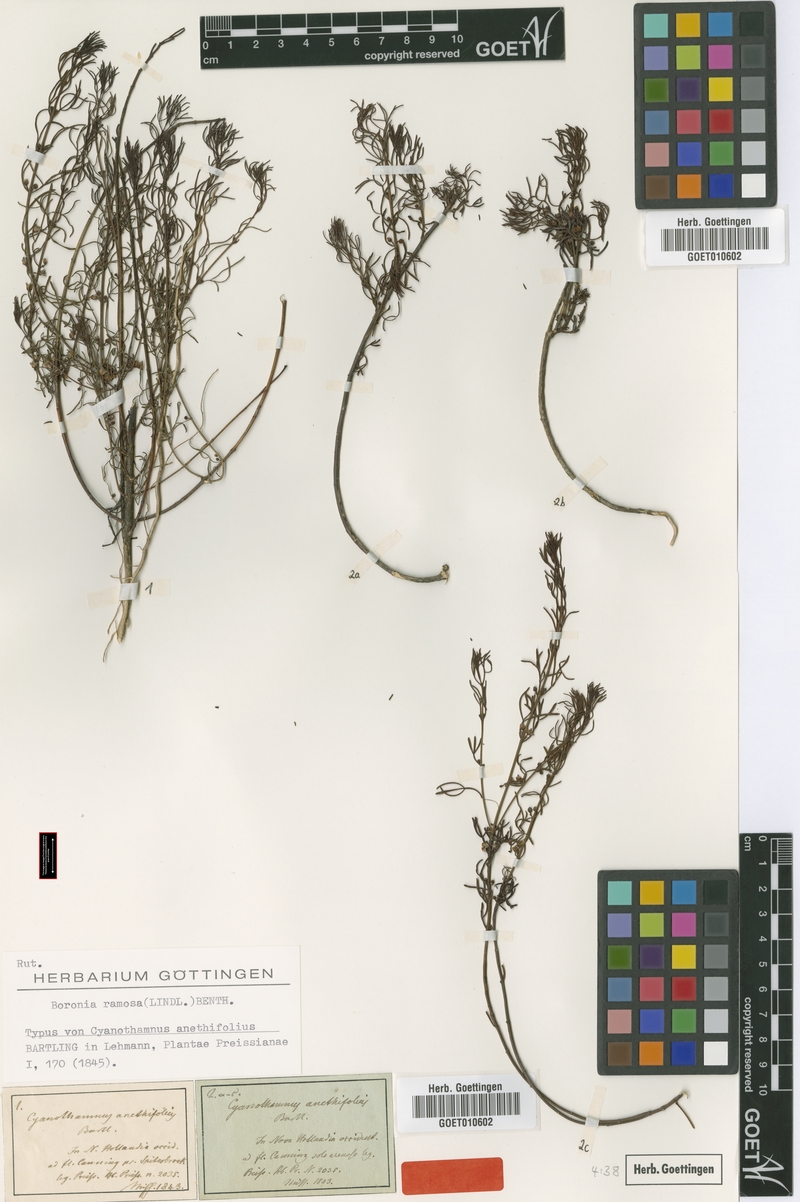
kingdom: Plantae
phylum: Tracheophyta
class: Magnoliopsida
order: Sapindales
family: Rutaceae
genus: Cyanothamnus
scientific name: Cyanothamnus ramosus
